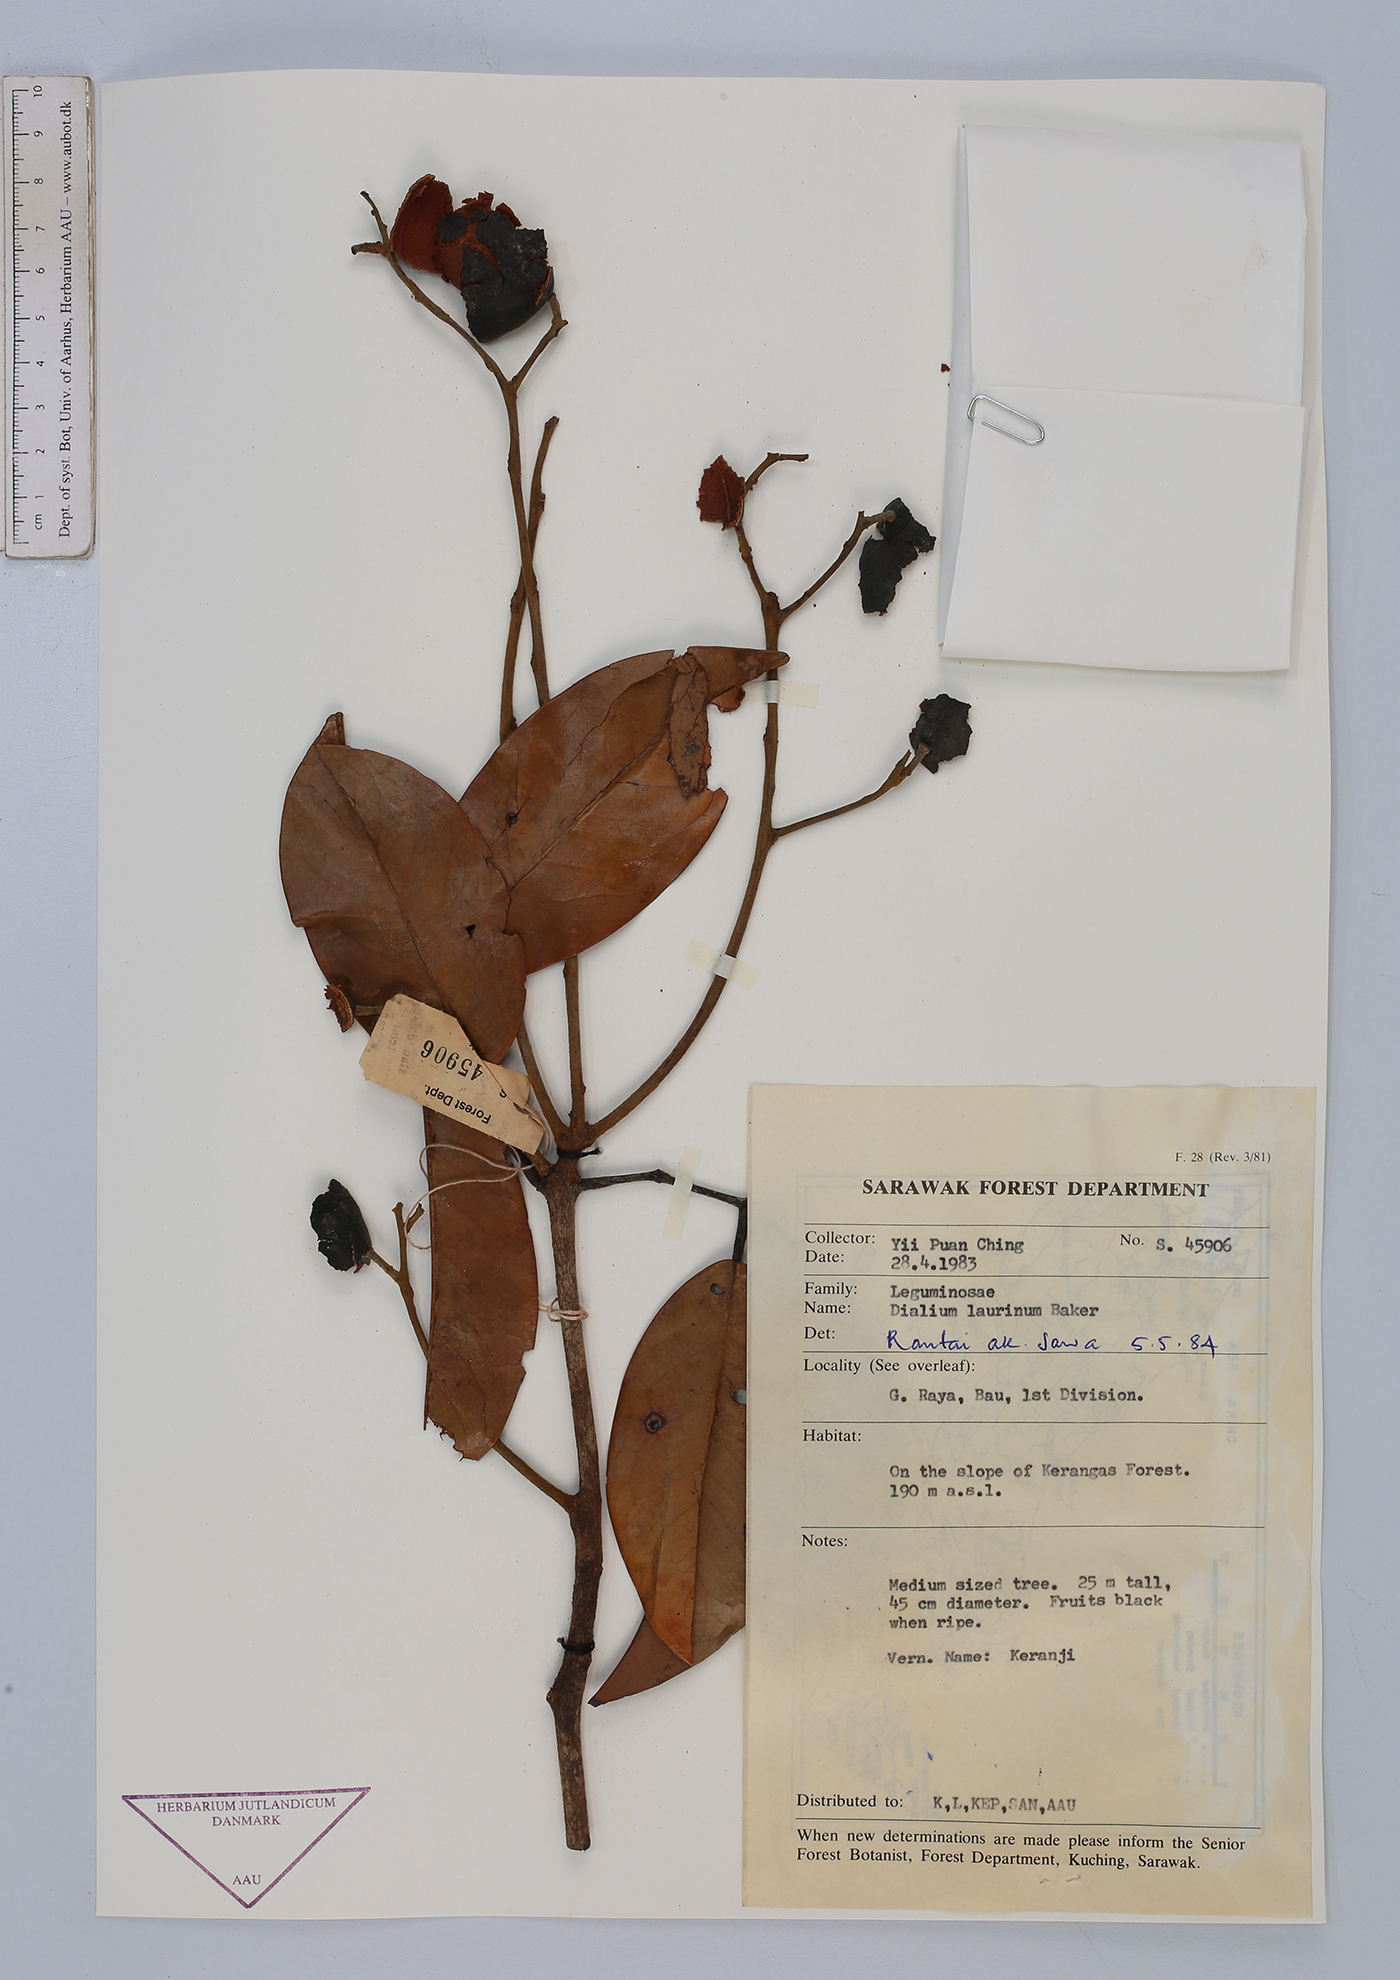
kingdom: Plantae
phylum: Tracheophyta
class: Magnoliopsida
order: Fabales
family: Fabaceae
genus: Dialium
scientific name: Dialium indum
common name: Tamarind-plum
